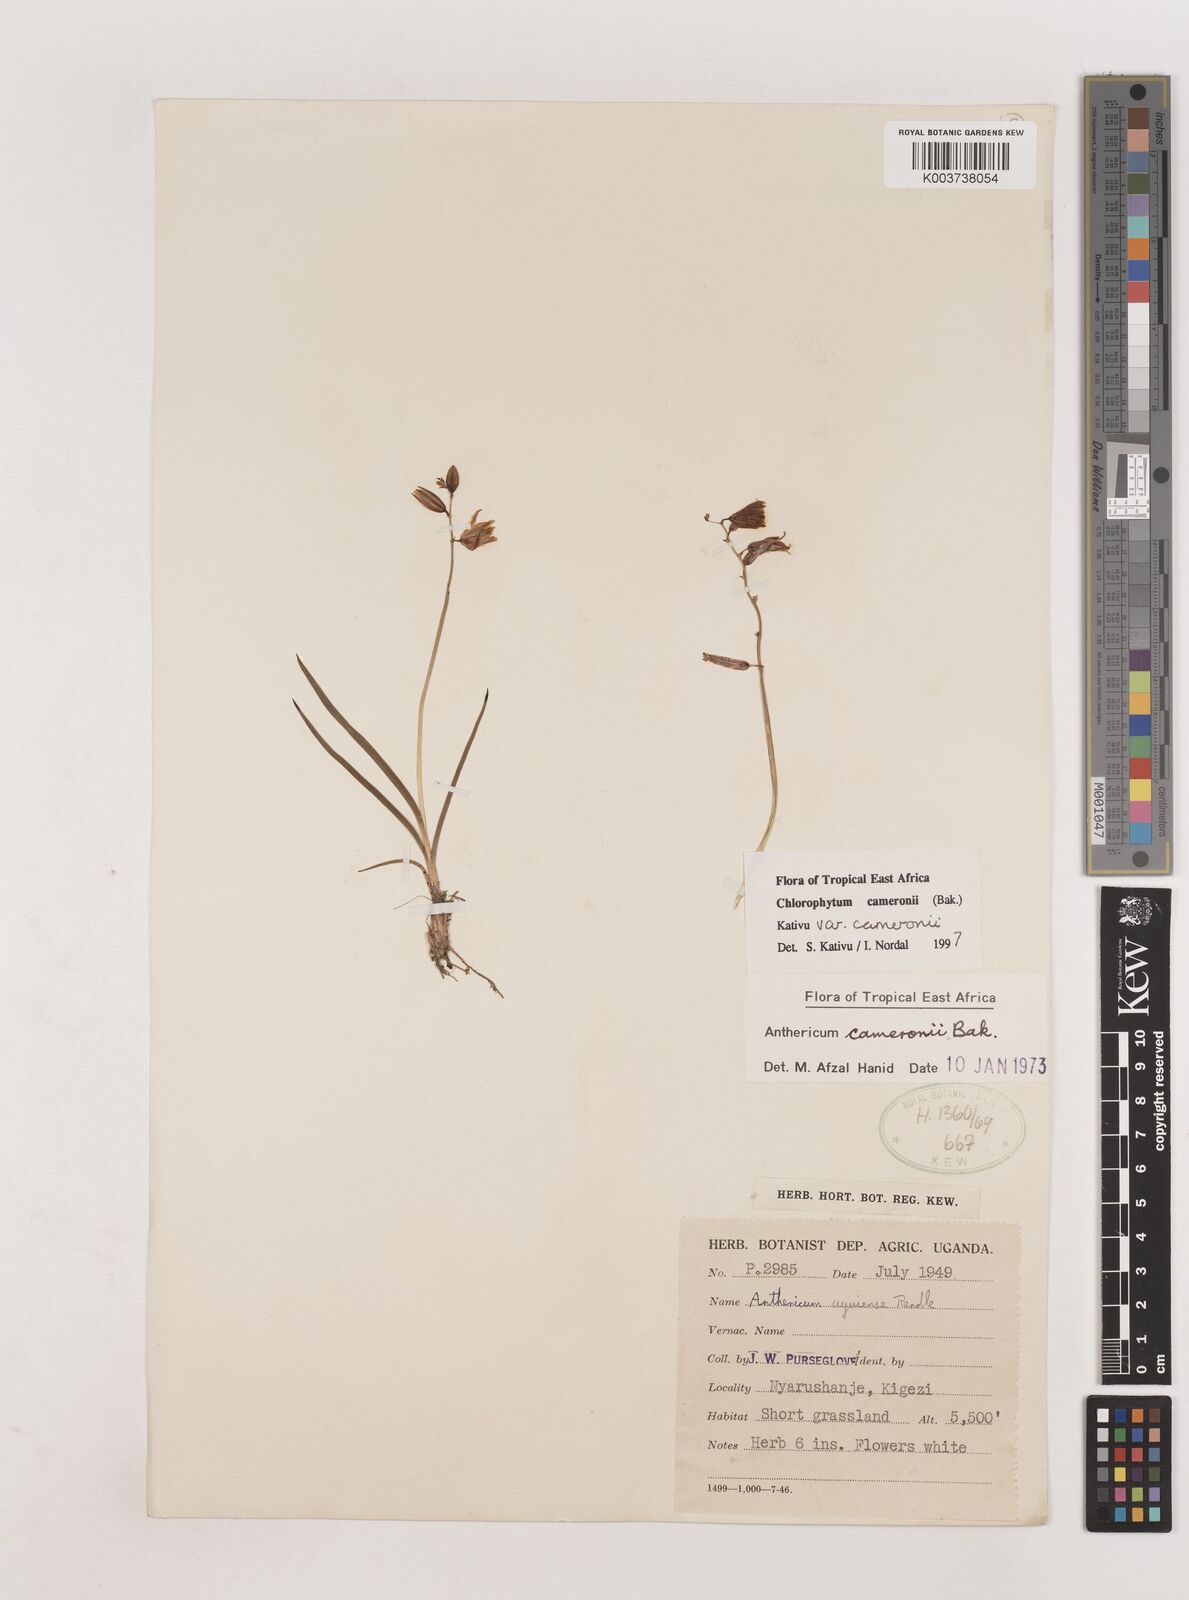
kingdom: Plantae
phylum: Tracheophyta
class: Liliopsida
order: Asparagales
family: Asparagaceae
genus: Chlorophytum
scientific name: Chlorophytum cameronii
